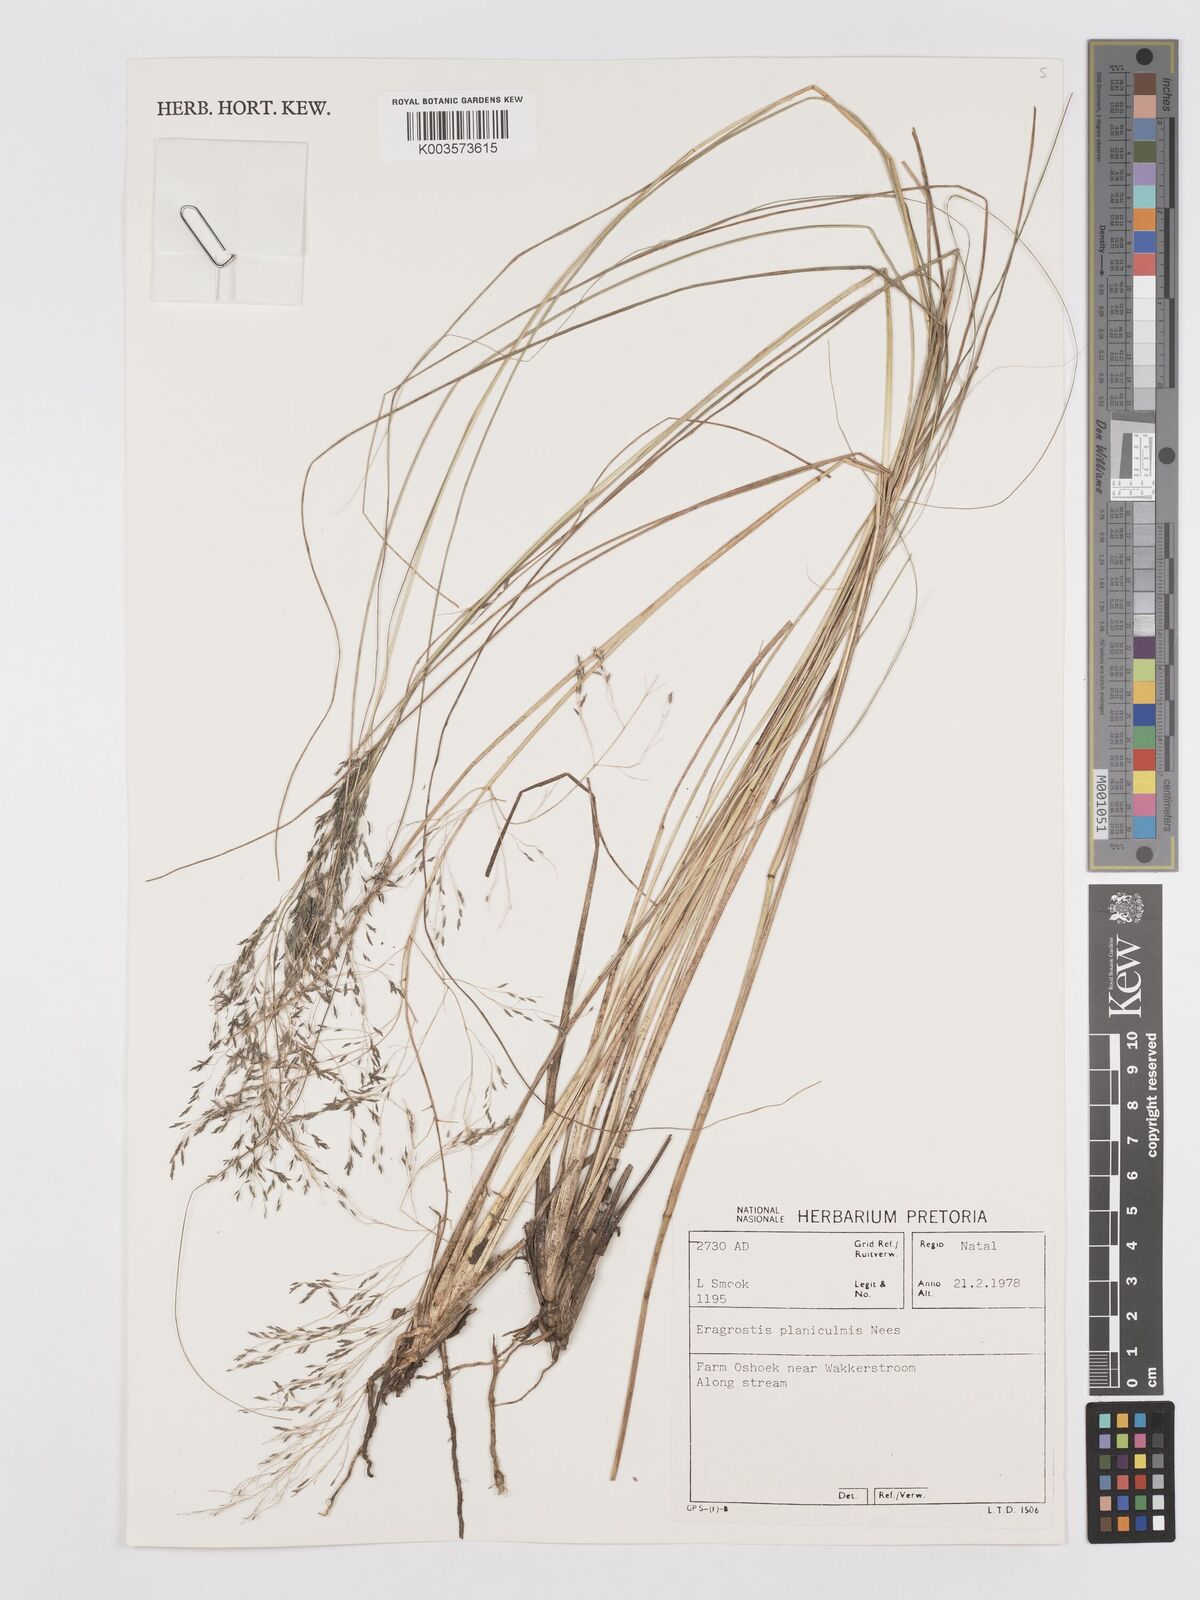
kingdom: Plantae
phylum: Tracheophyta
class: Liliopsida
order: Poales
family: Poaceae
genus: Eragrostis
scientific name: Eragrostis planiculmis
